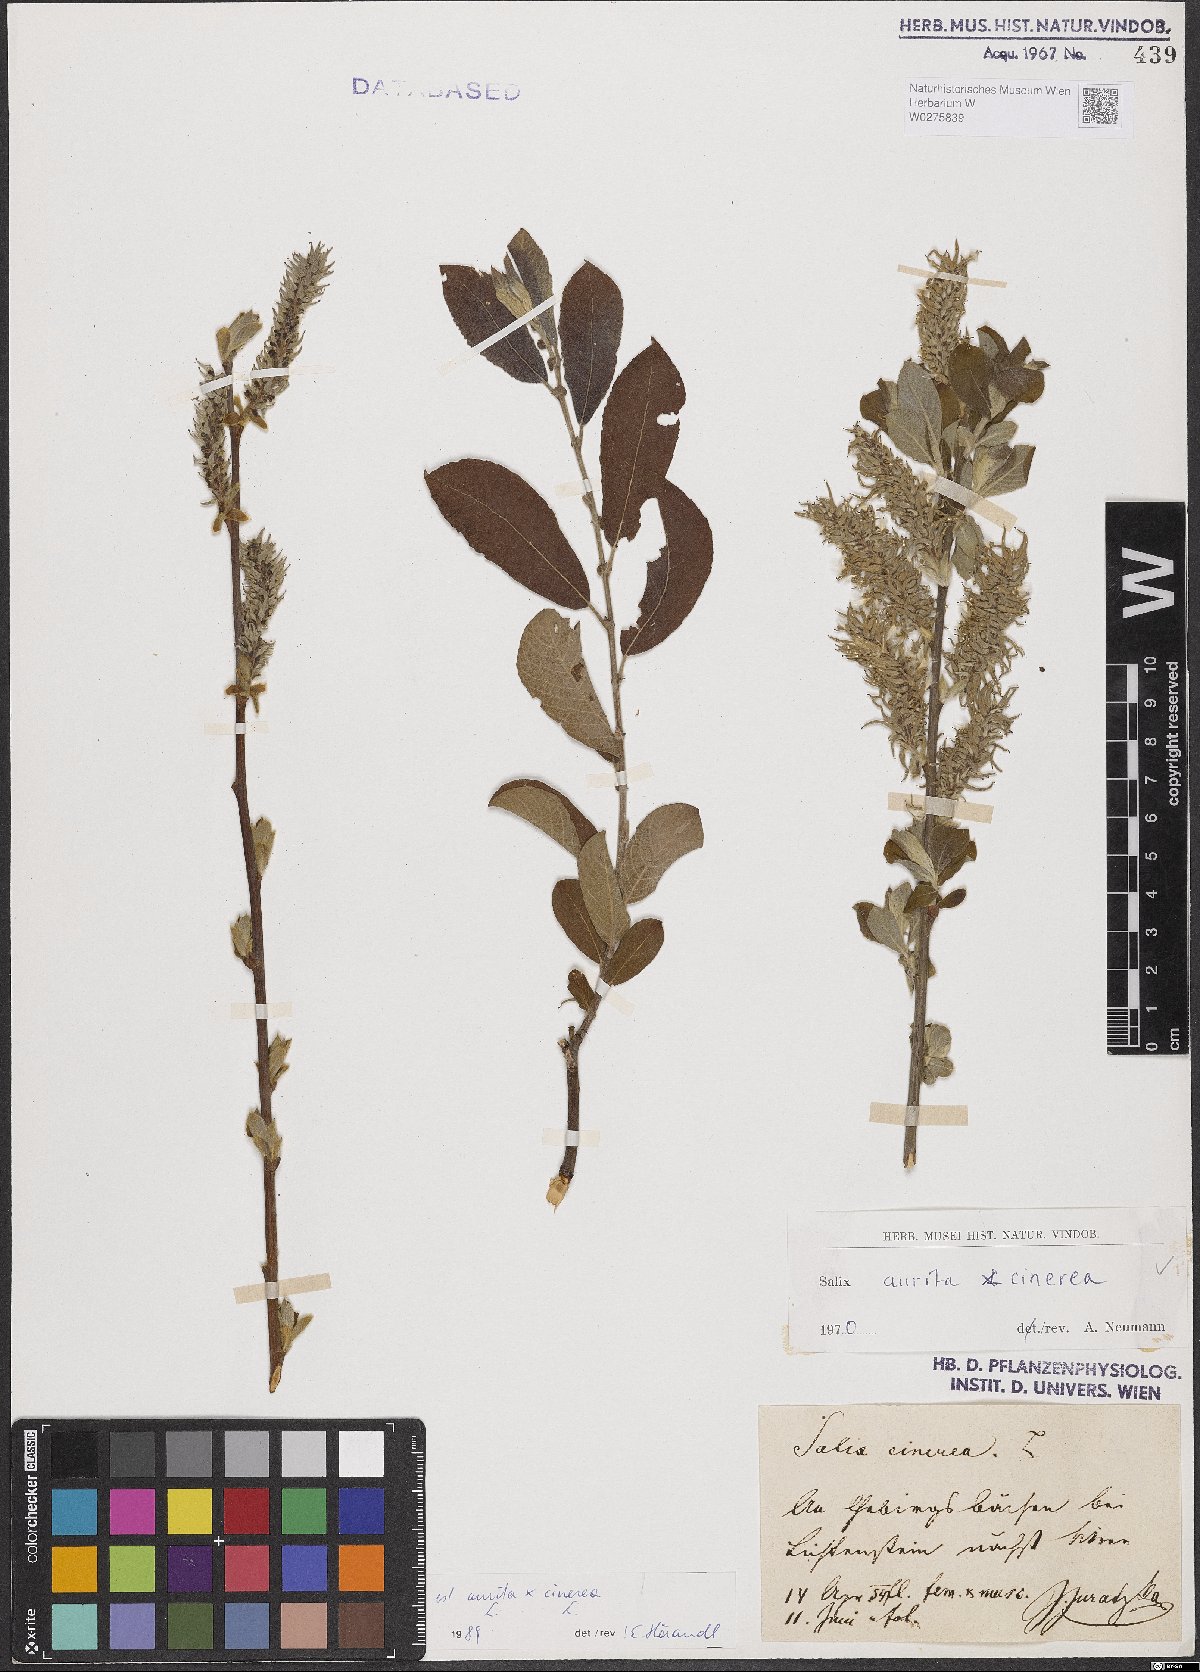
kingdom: Plantae
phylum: Tracheophyta
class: Magnoliopsida
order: Malpighiales
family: Salicaceae
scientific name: Salicaceae
